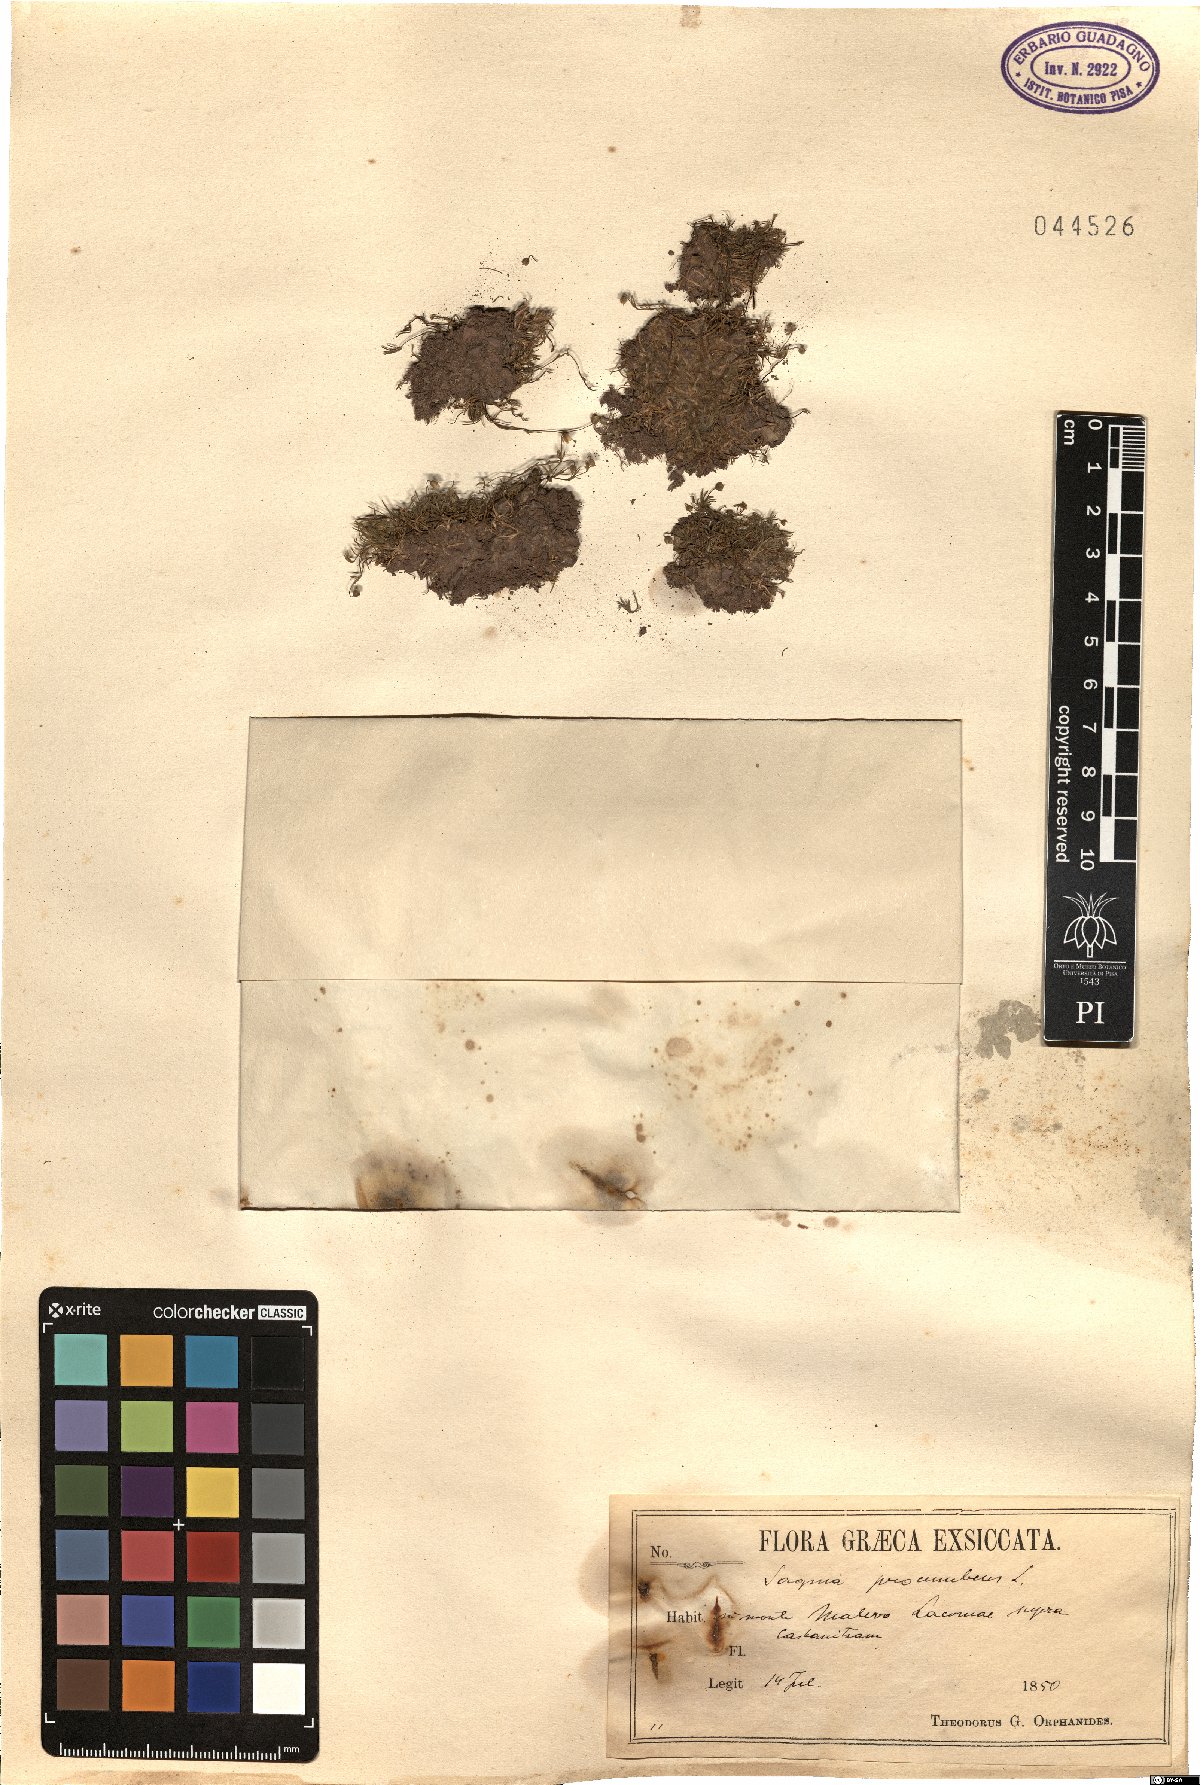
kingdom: Plantae
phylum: Tracheophyta
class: Magnoliopsida
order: Caryophyllales
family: Caryophyllaceae
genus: Sagina
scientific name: Sagina procumbens
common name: Procumbent pearlwort
